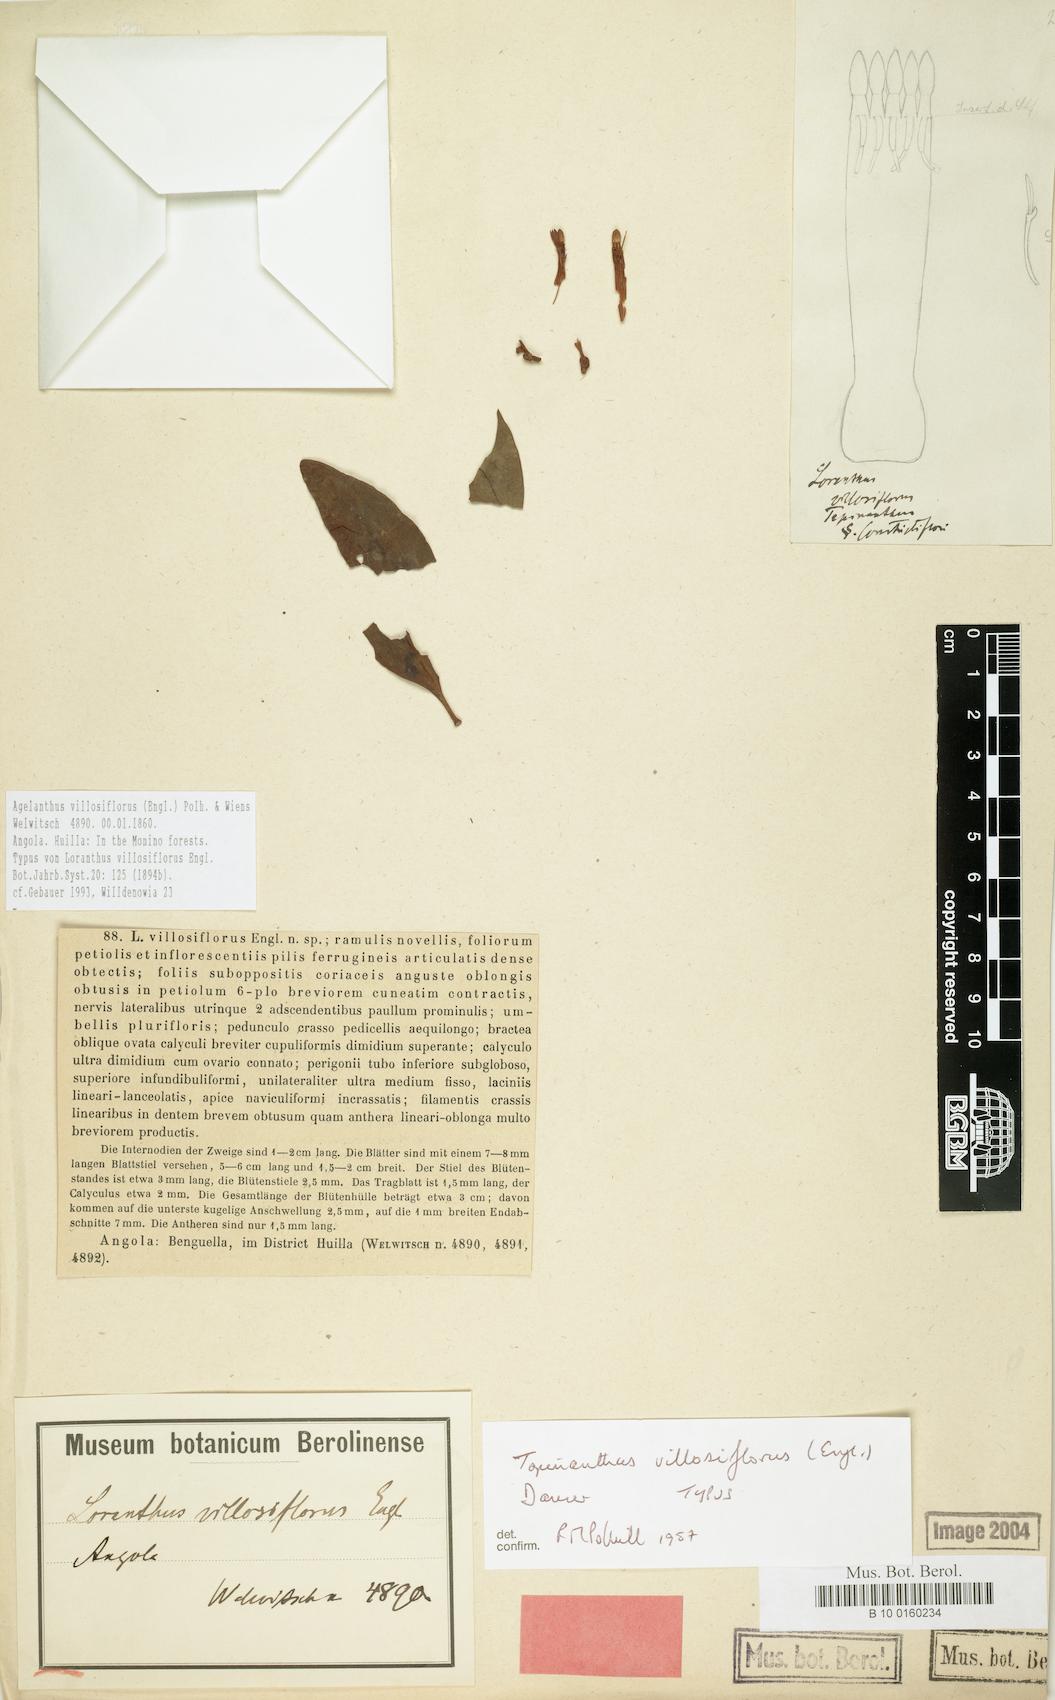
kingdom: Plantae
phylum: Tracheophyta
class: Magnoliopsida
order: Santalales
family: Loranthaceae
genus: Agelanthus
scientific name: Agelanthus villosiflorus
